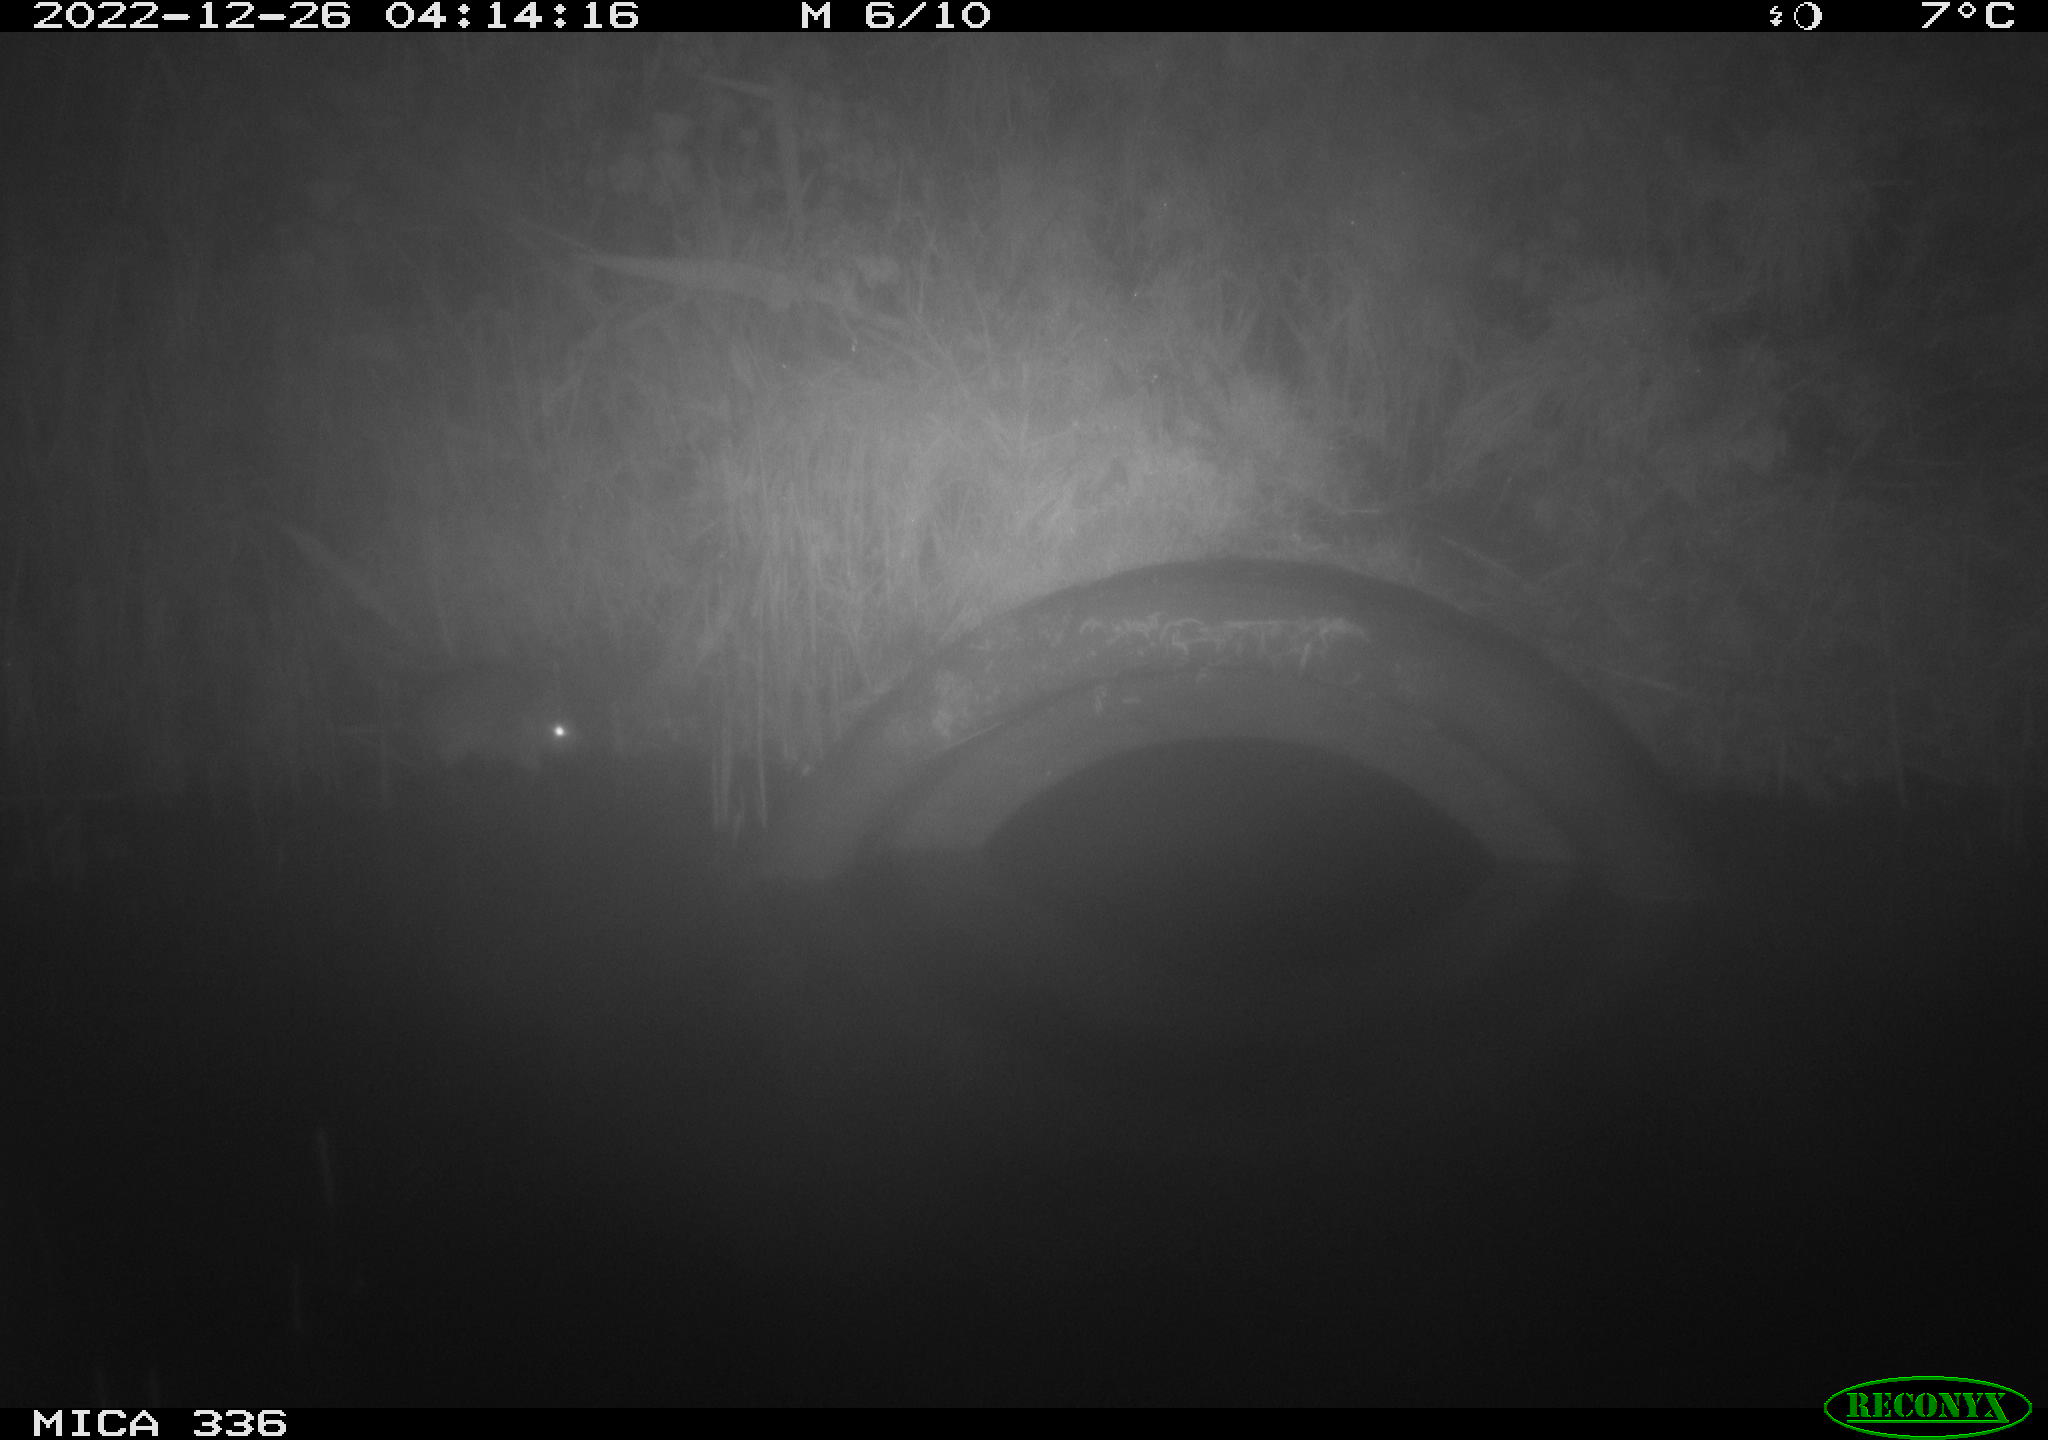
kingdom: Animalia
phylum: Chordata
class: Mammalia
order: Rodentia
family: Muridae
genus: Rattus
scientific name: Rattus norvegicus
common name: Brown rat
